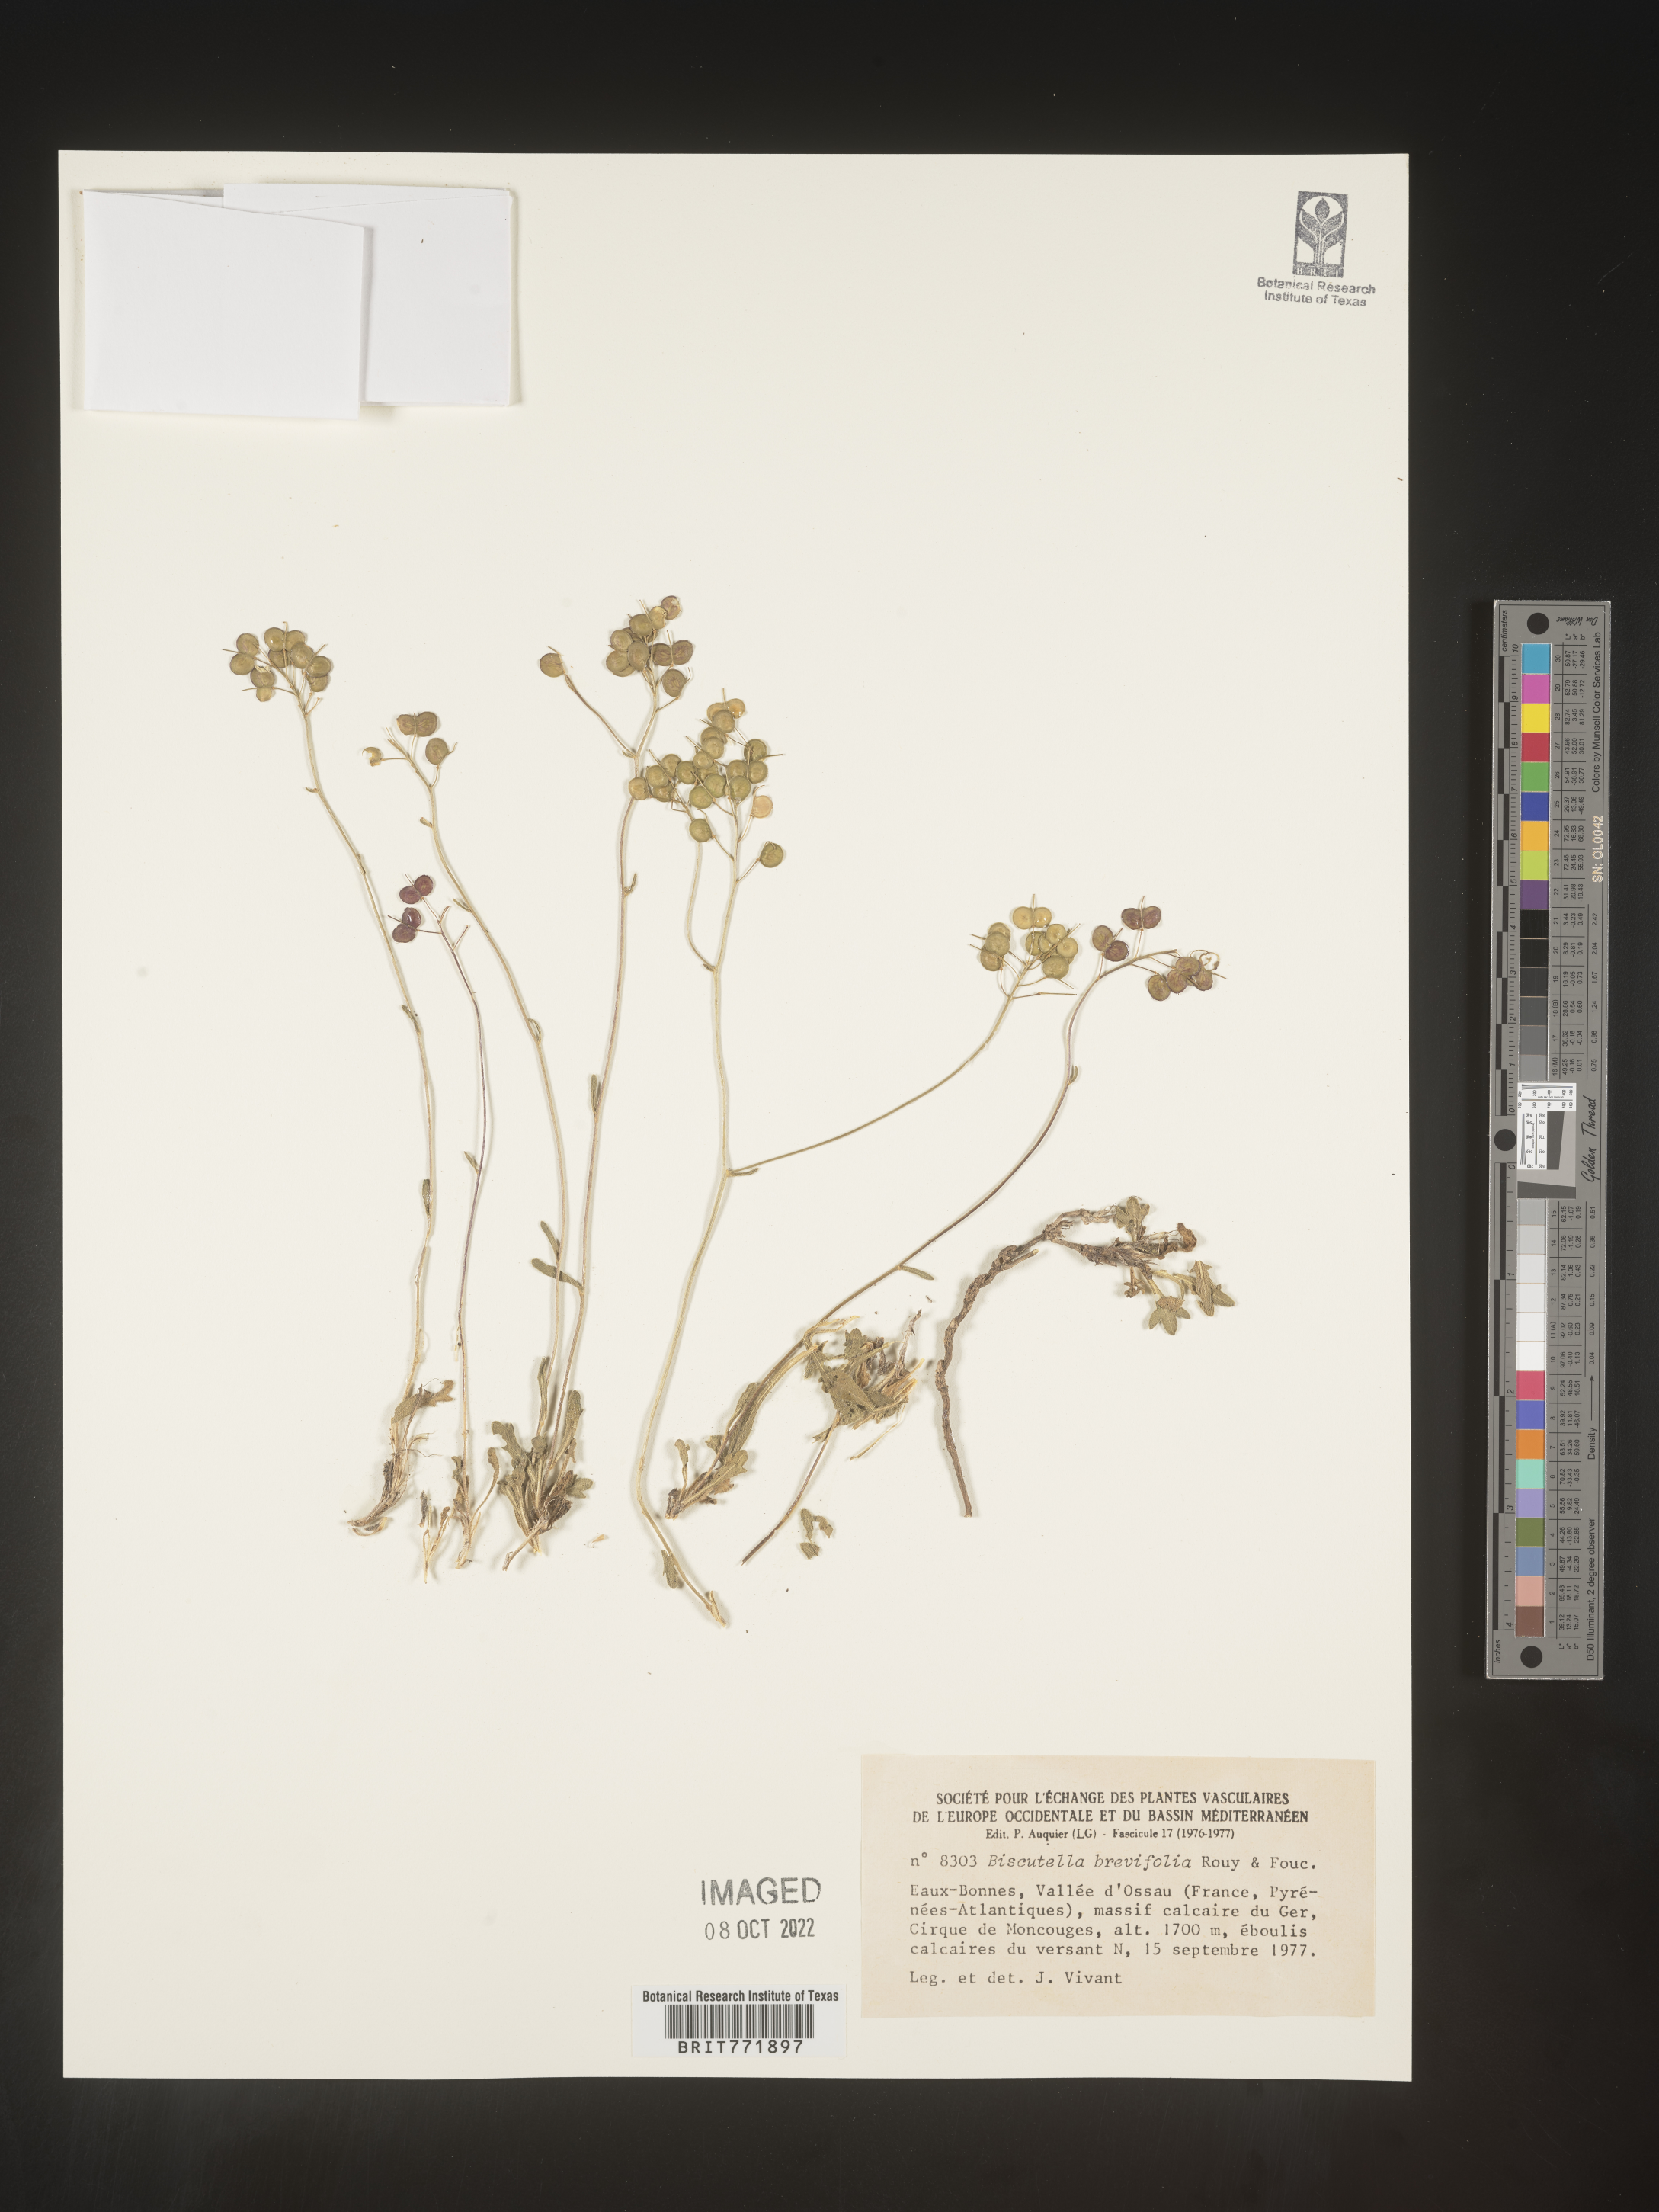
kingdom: Plantae
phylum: Tracheophyta
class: Magnoliopsida
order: Brassicales
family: Brassicaceae
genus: Biscutella
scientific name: Biscutella
